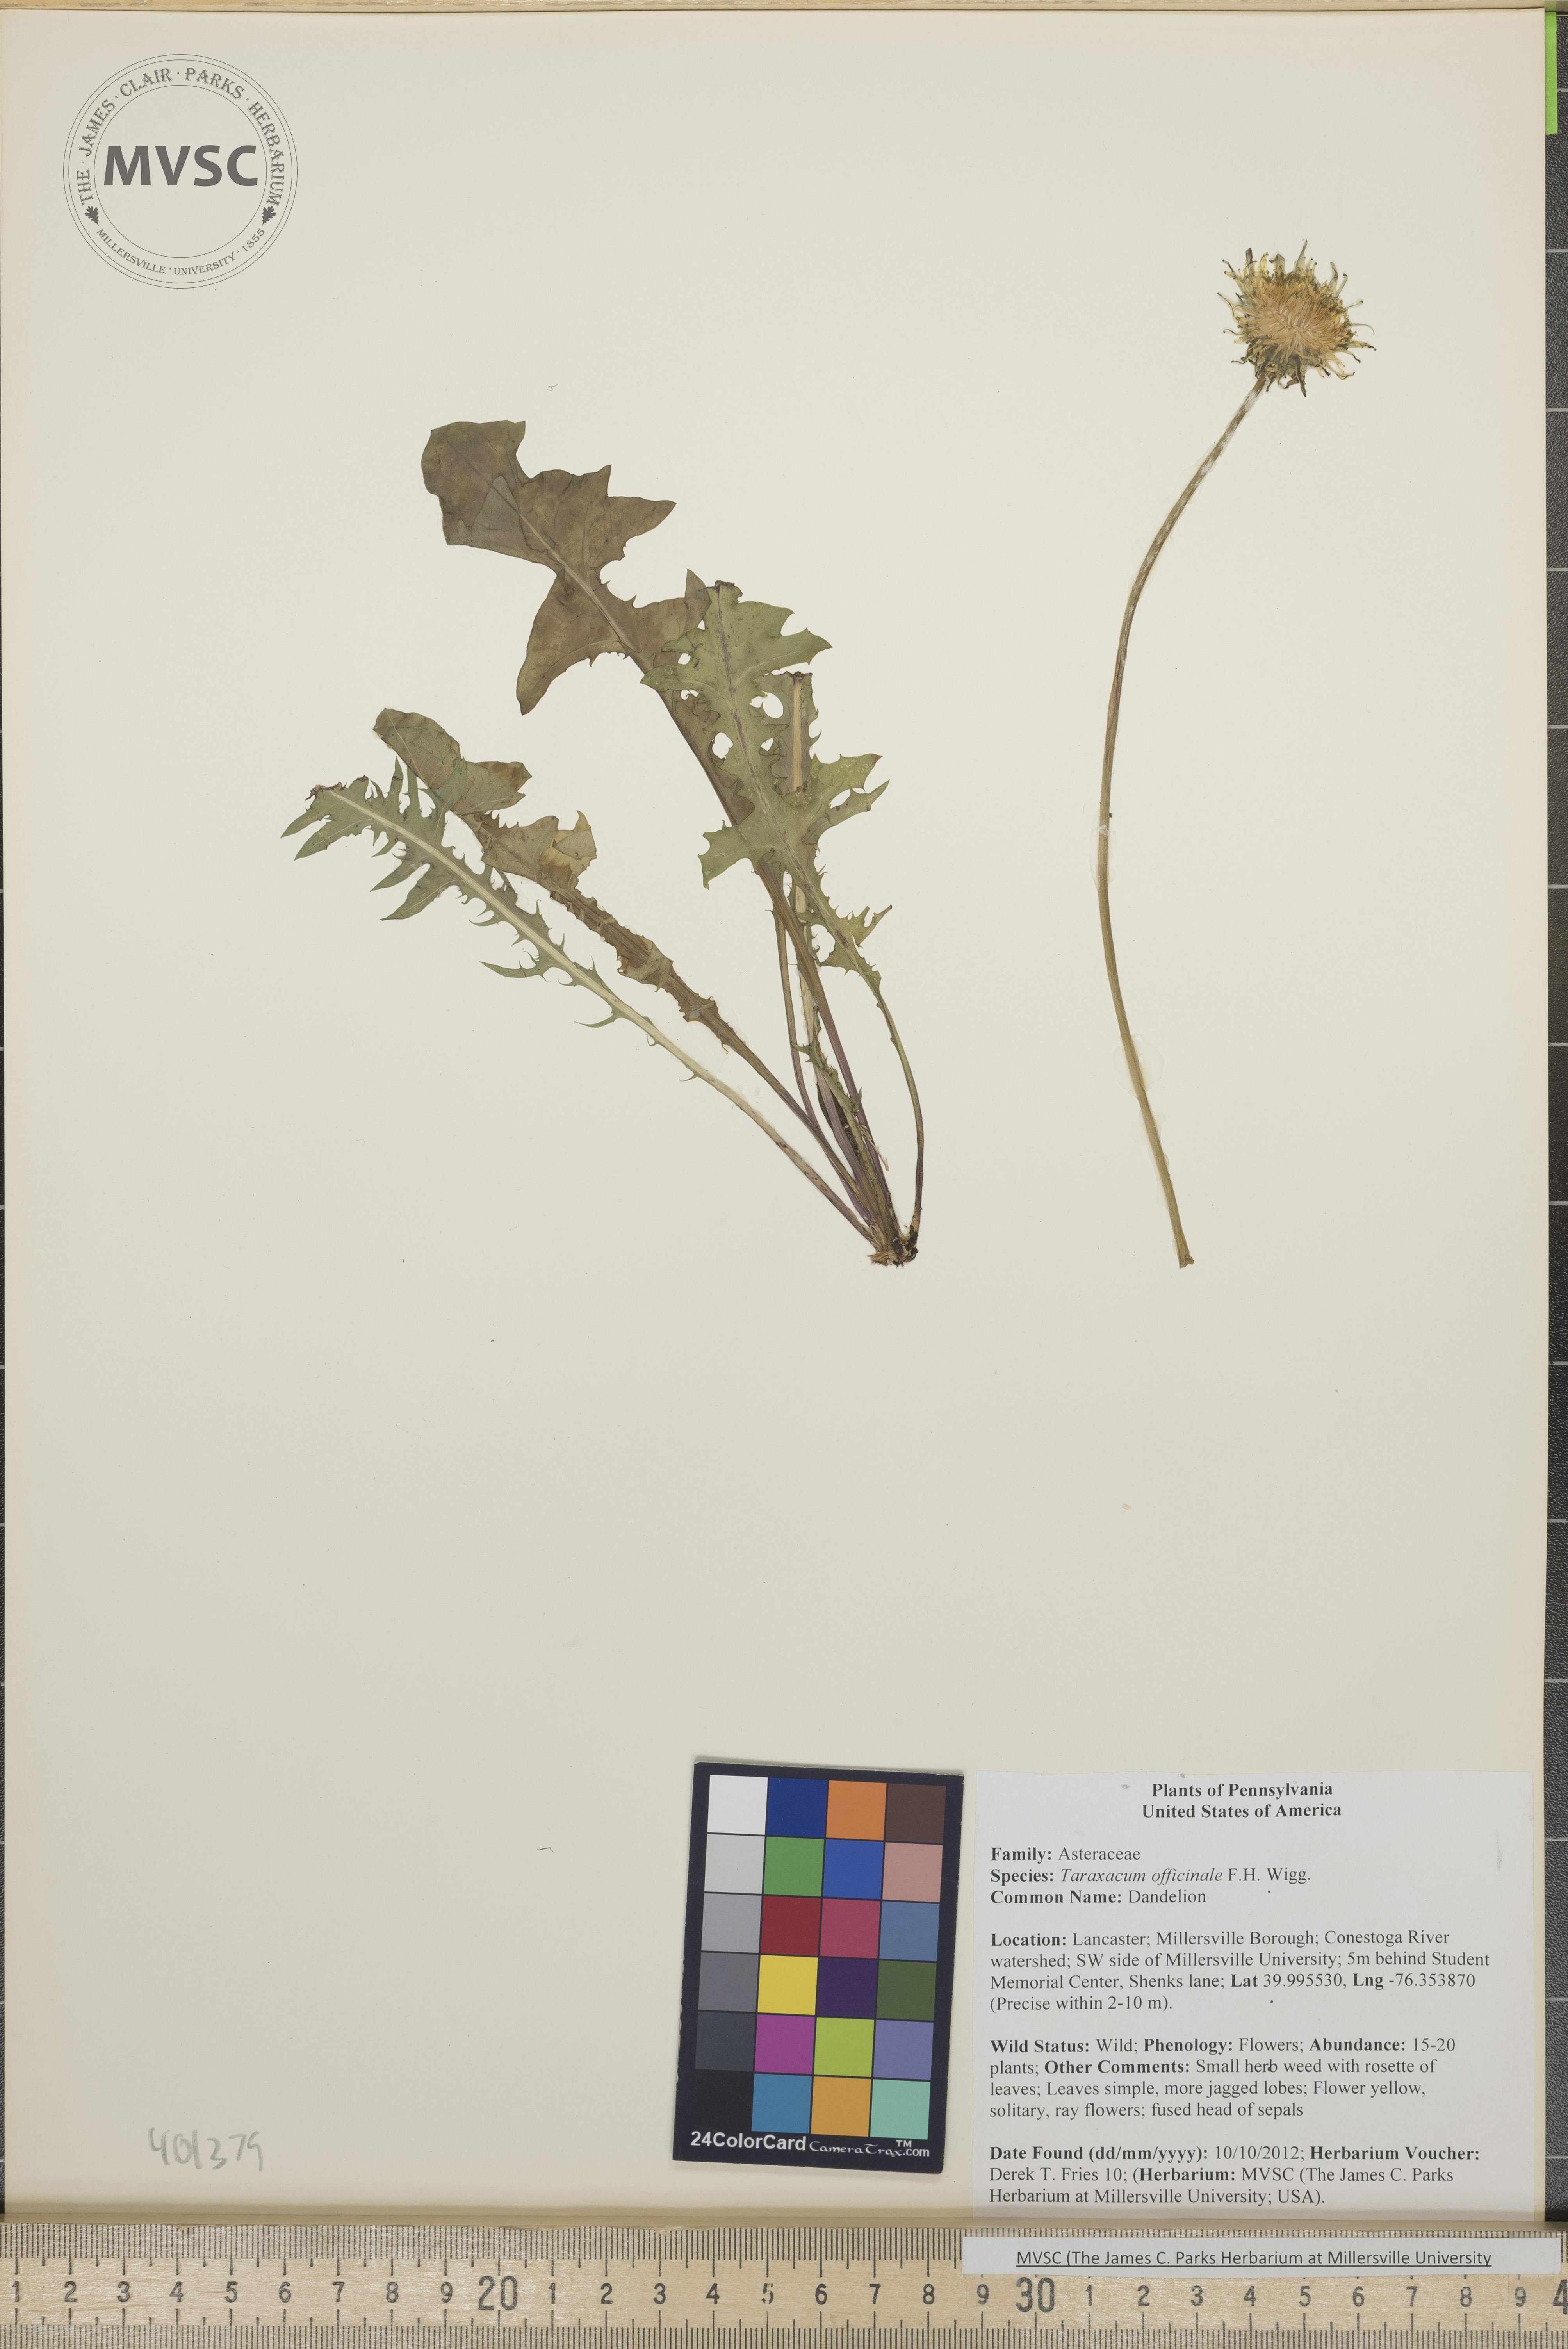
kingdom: Plantae
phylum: Tracheophyta
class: Magnoliopsida
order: Asterales
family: Asteraceae
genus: Taraxacum
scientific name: Taraxacum officinale
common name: Dandelion
